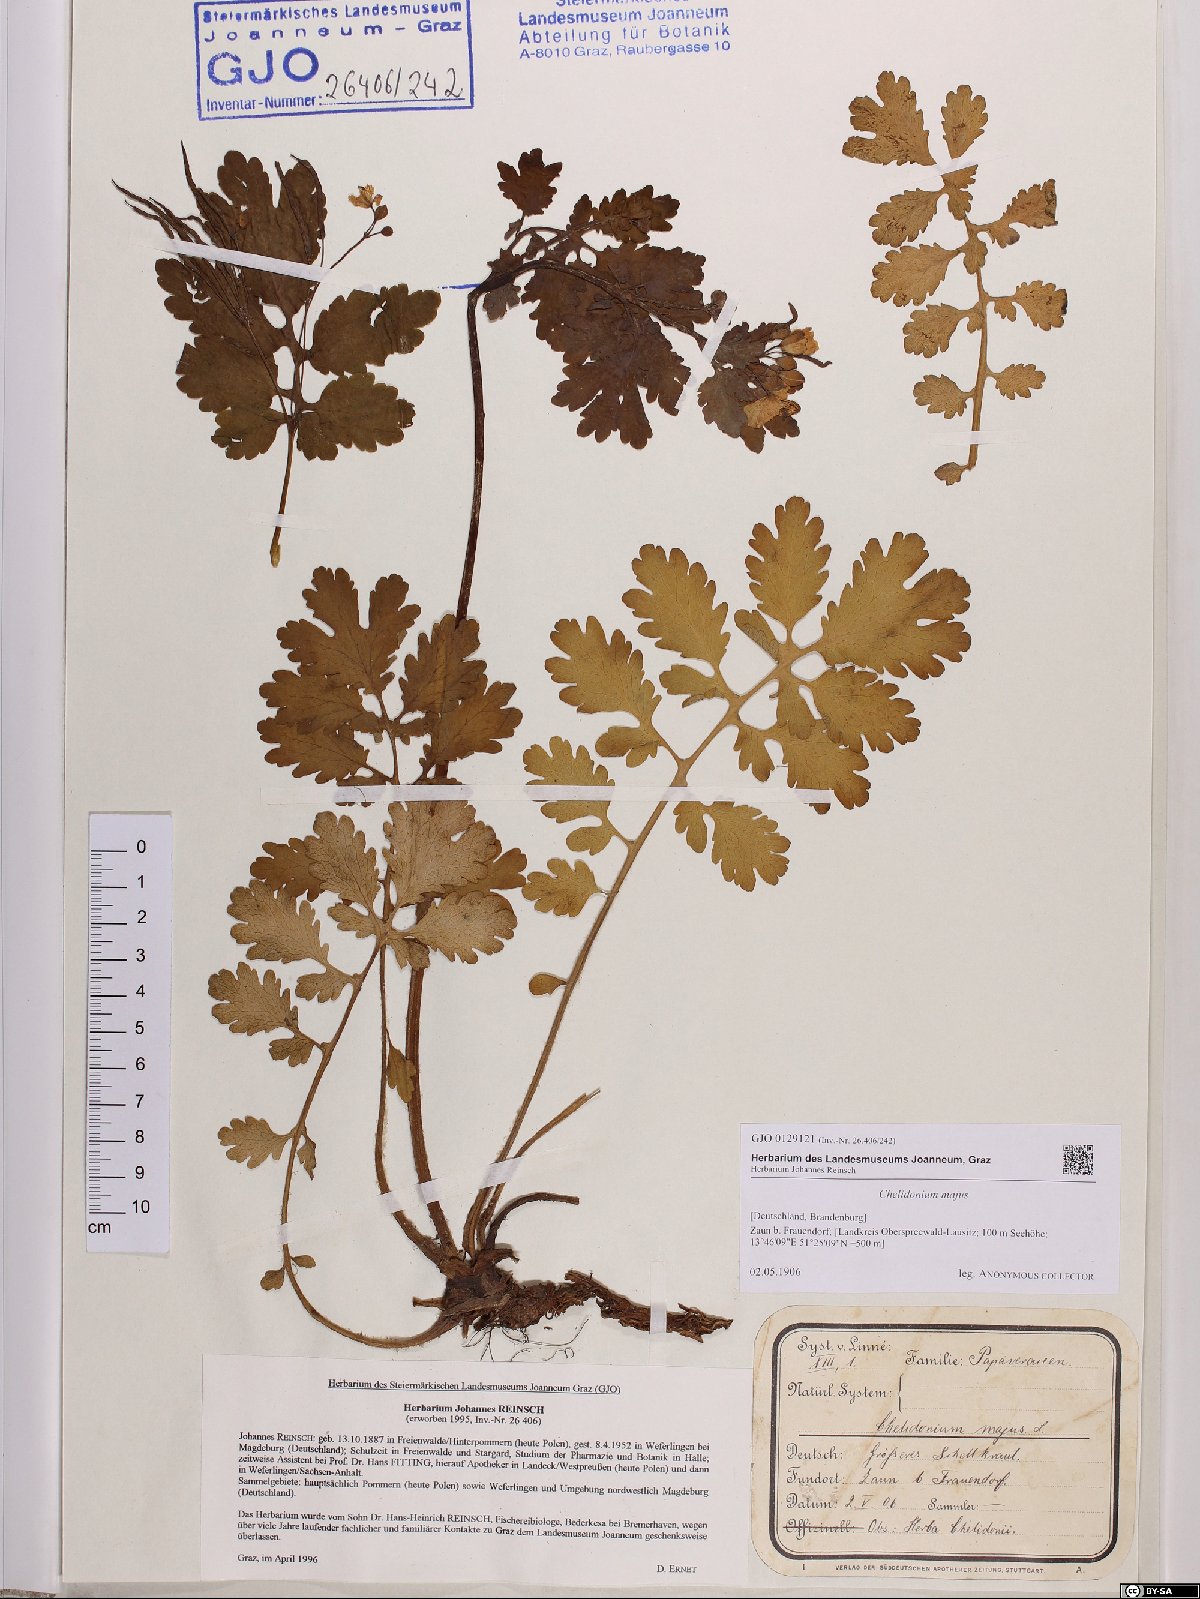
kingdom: Plantae
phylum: Tracheophyta
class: Magnoliopsida
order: Ranunculales
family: Papaveraceae
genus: Chelidonium
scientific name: Chelidonium majus
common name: Greater celandine
